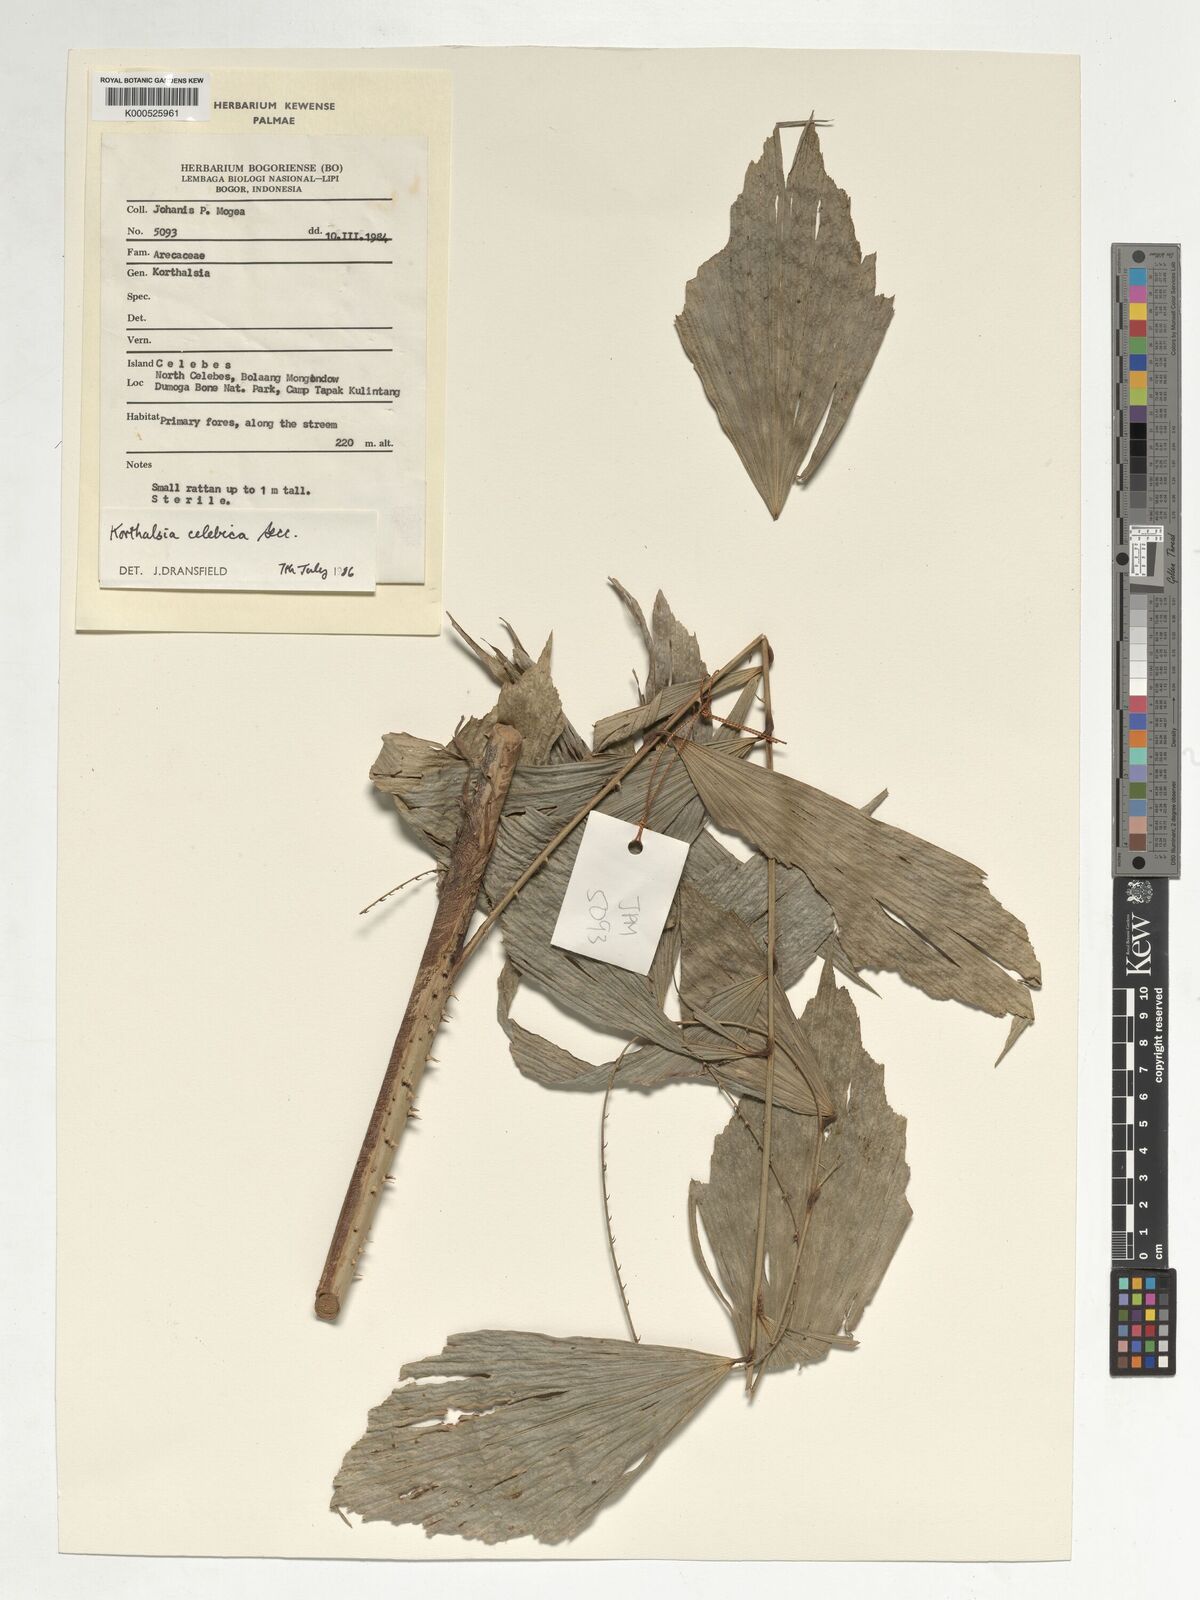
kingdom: Plantae
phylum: Tracheophyta
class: Liliopsida
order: Arecales
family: Arecaceae
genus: Korthalsia
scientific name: Korthalsia celebica
